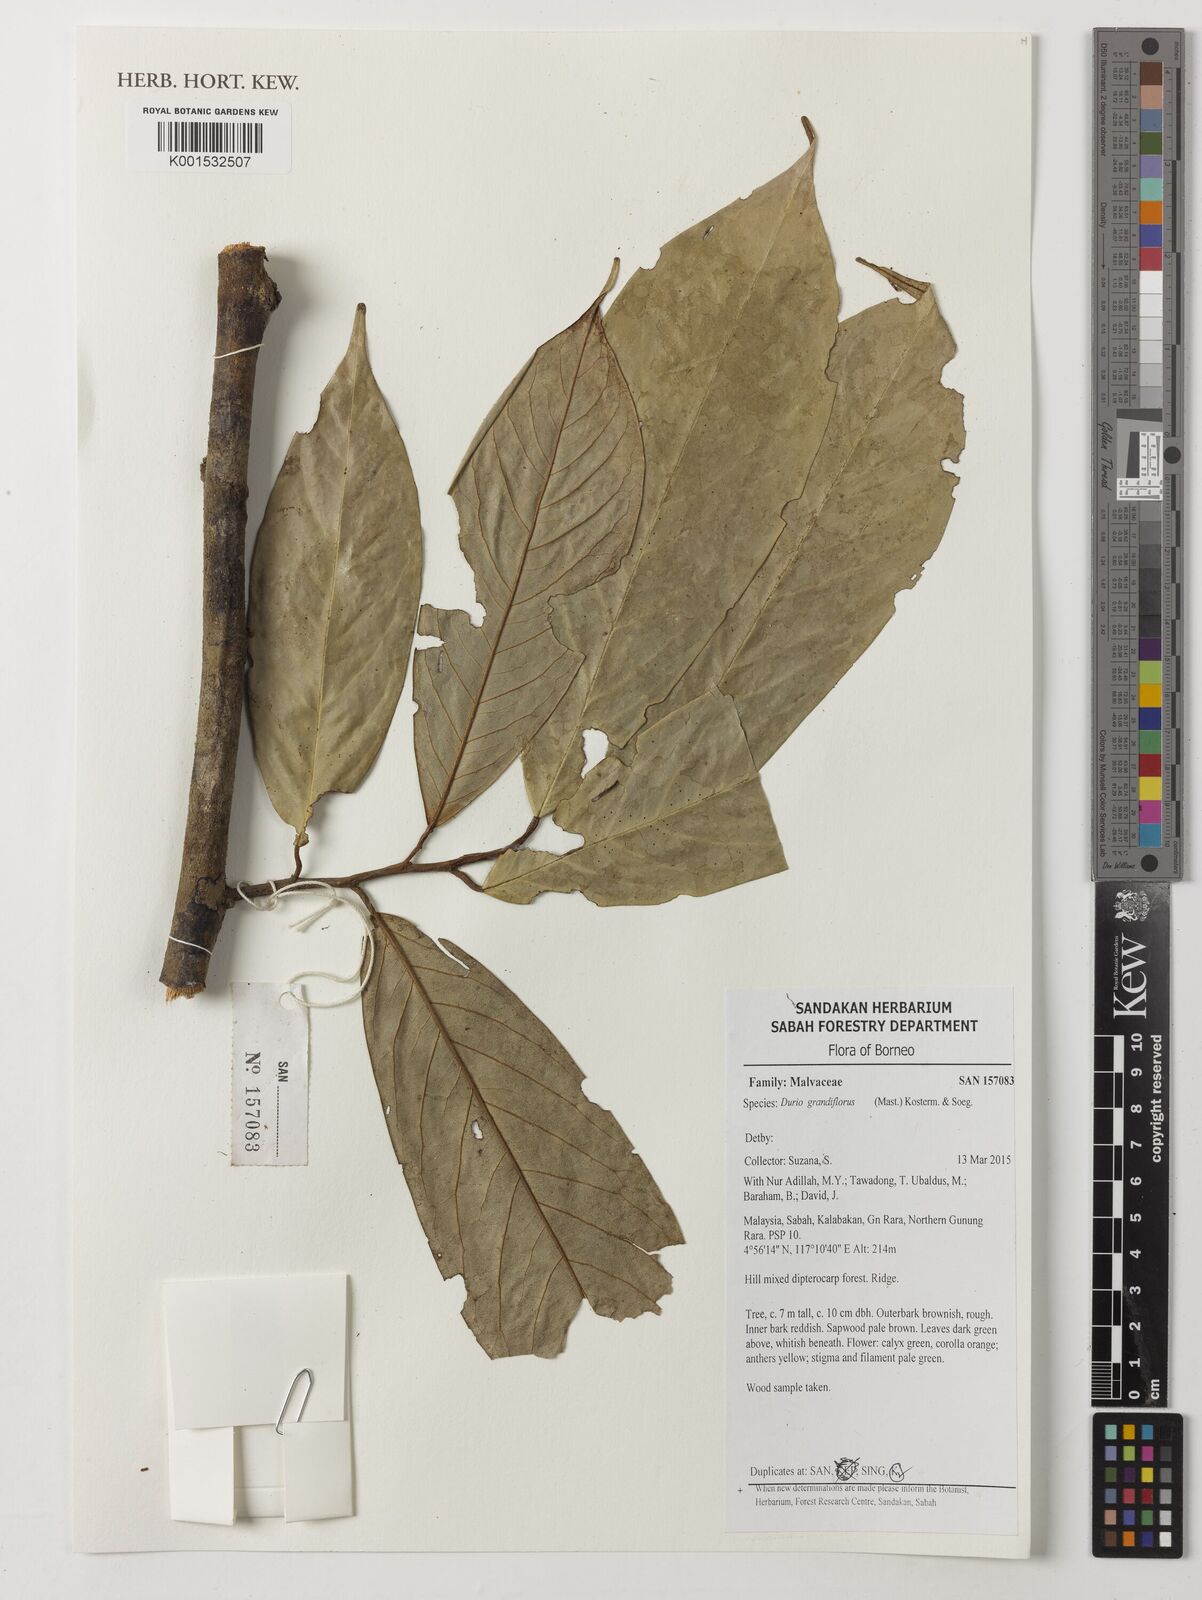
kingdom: Plantae
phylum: Tracheophyta
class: Magnoliopsida
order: Malvales
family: Malvaceae
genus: Boschia
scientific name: Boschia grandiflora
